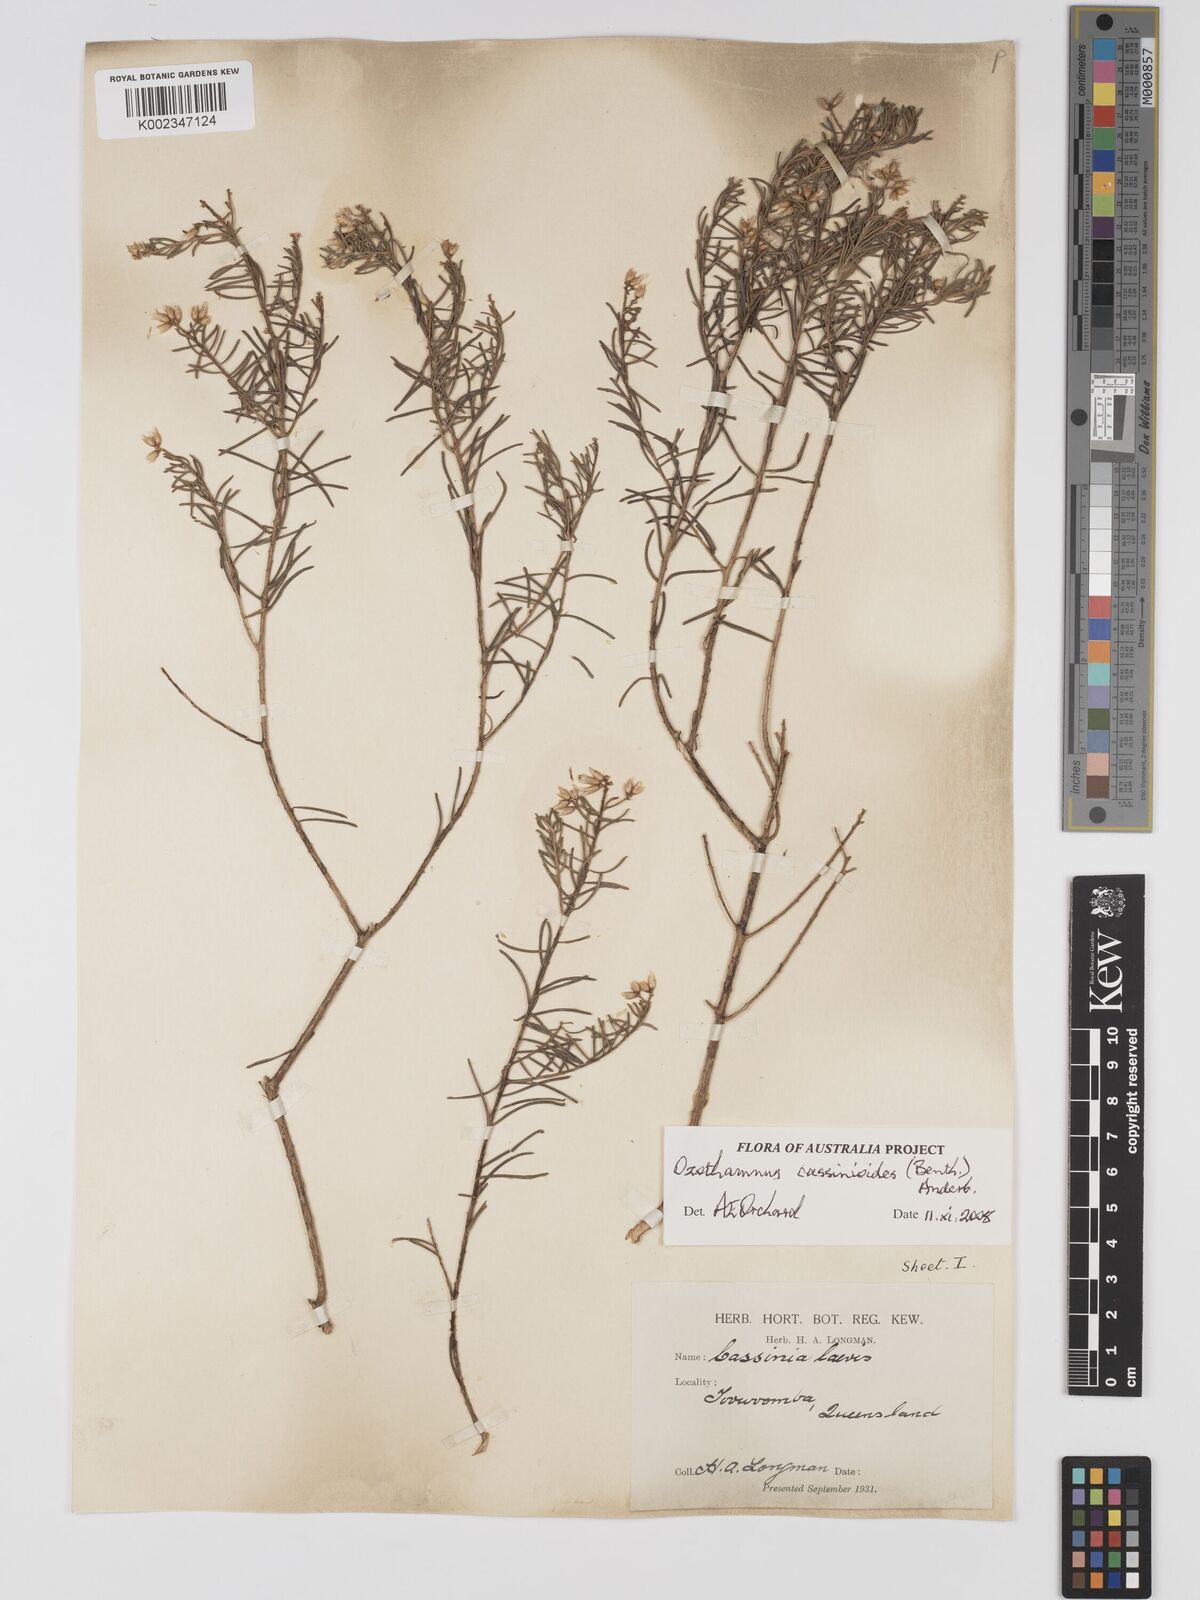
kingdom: Plantae
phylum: Tracheophyta
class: Magnoliopsida
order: Asterales
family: Asteraceae
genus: Ozothamnus
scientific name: Ozothamnus cassinioides
